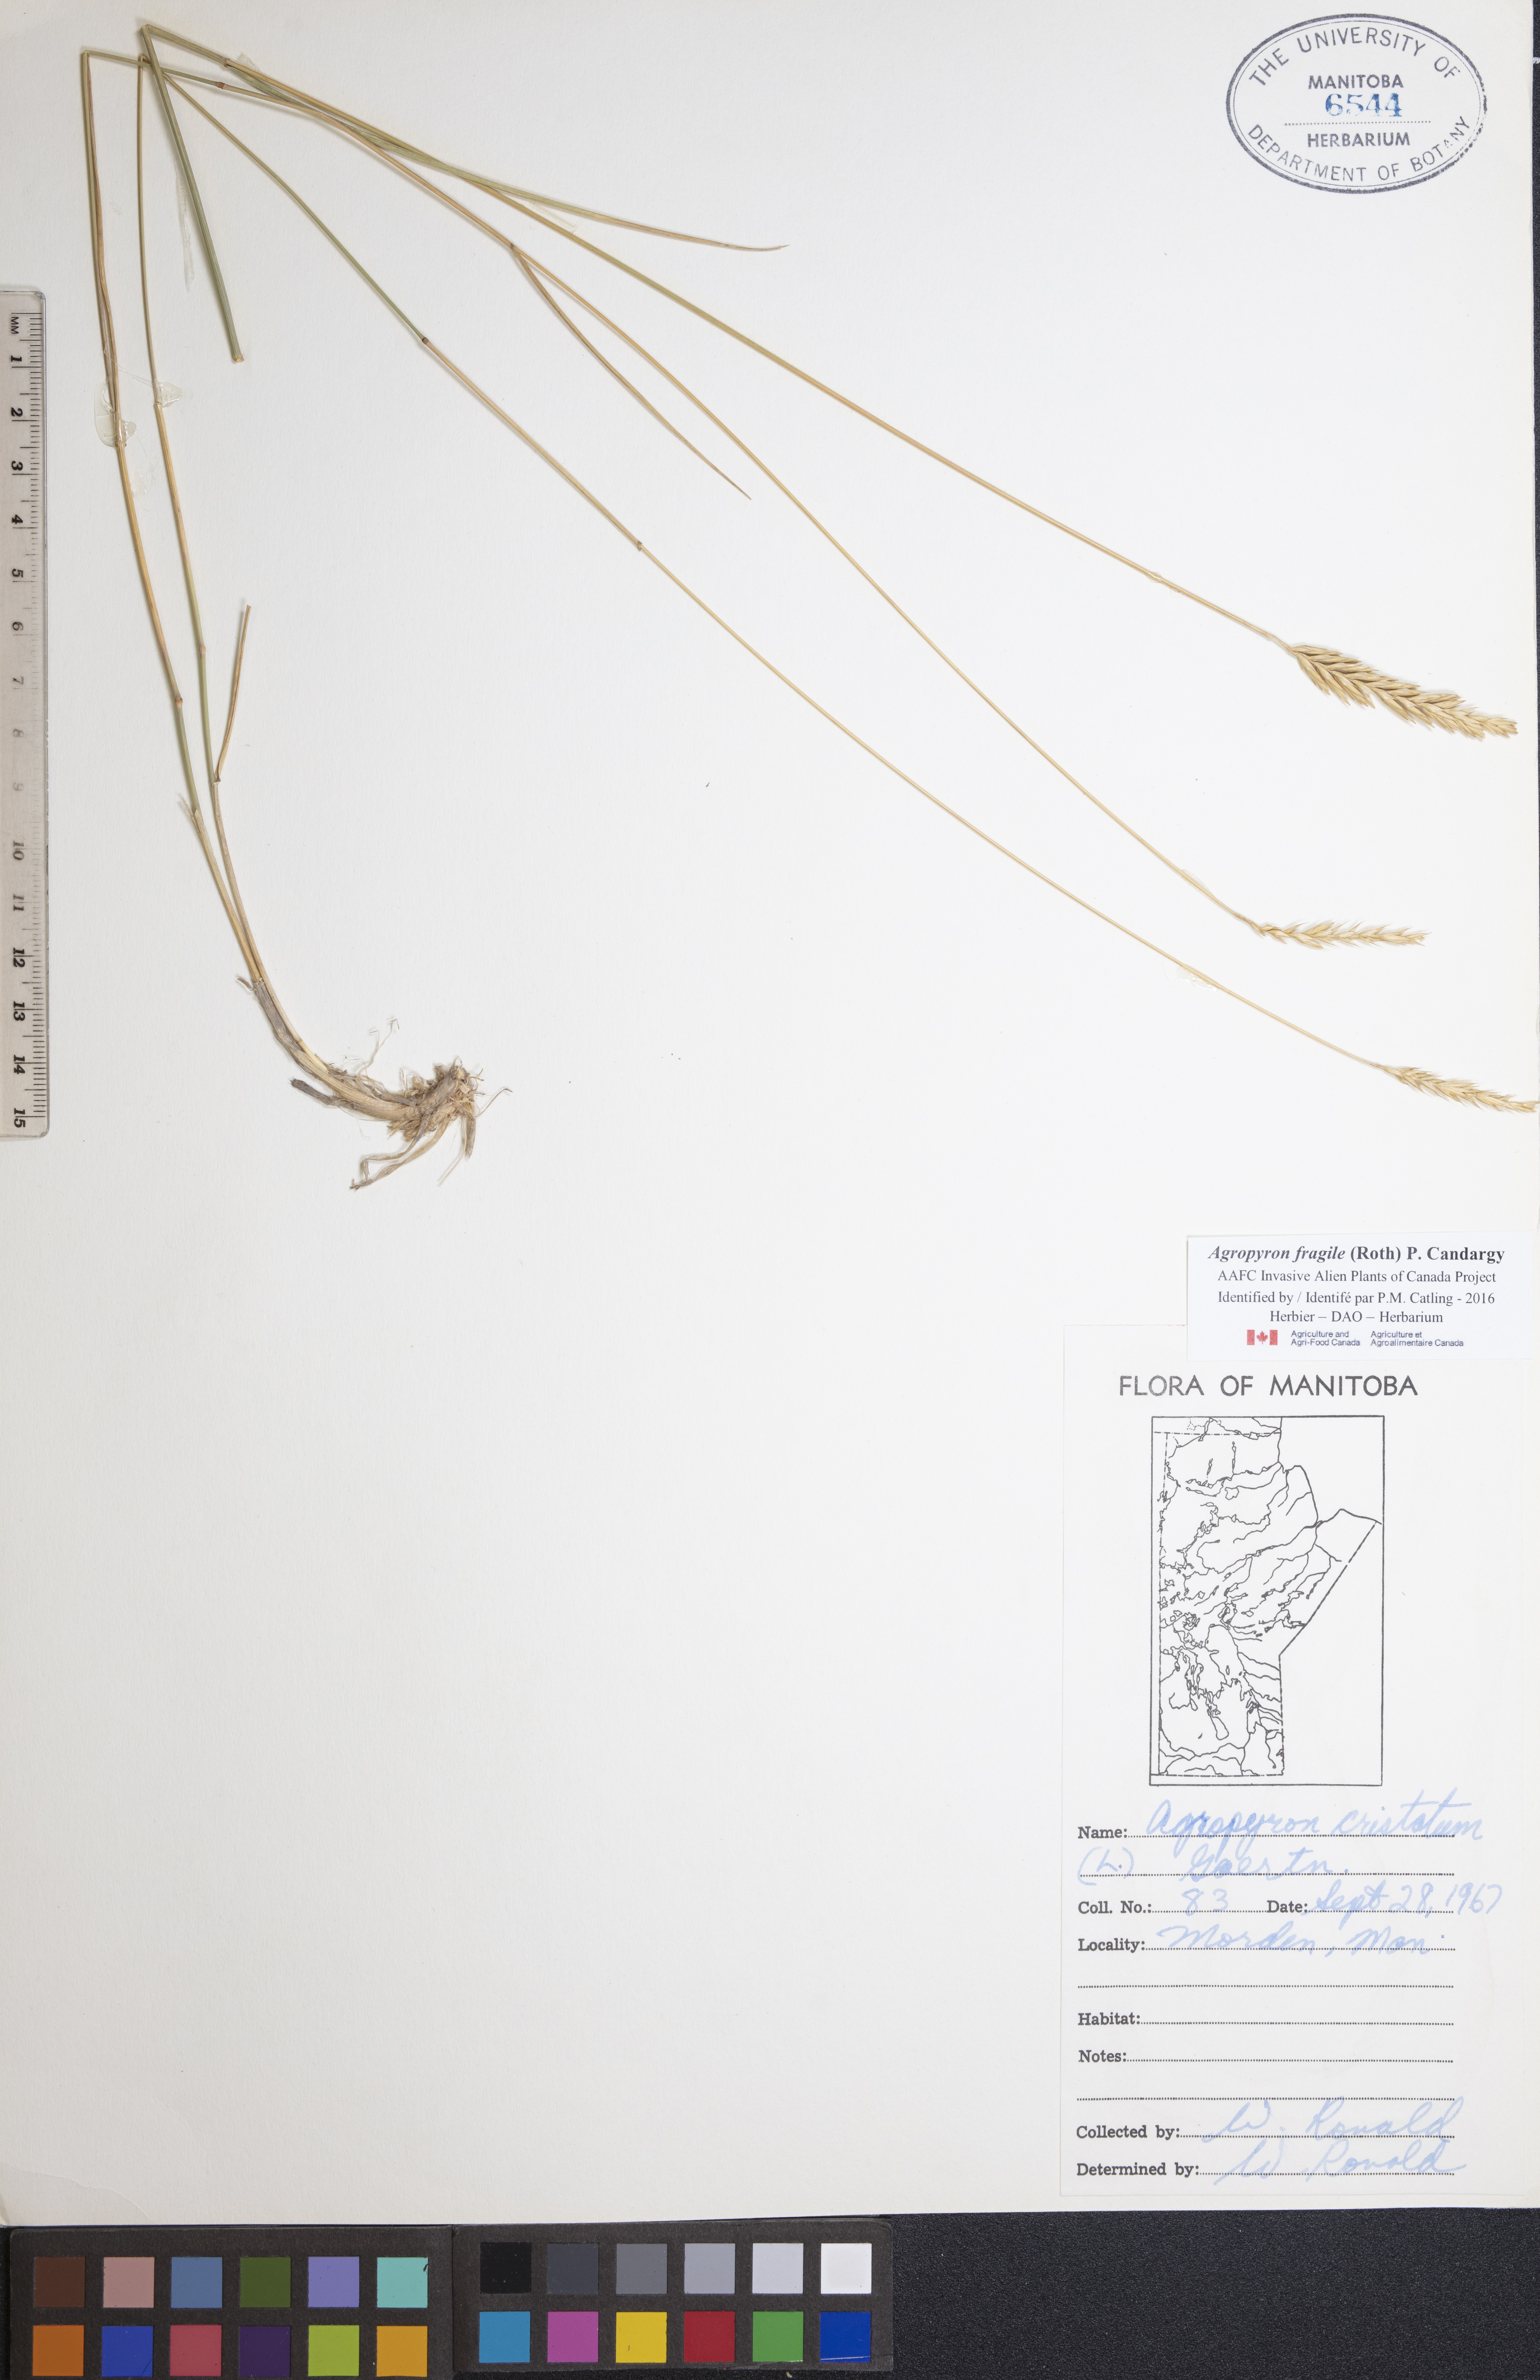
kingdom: Plantae
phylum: Tracheophyta
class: Liliopsida
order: Poales
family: Poaceae
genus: Agropyron
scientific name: Agropyron fragile
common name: Siberian wheatgrass
